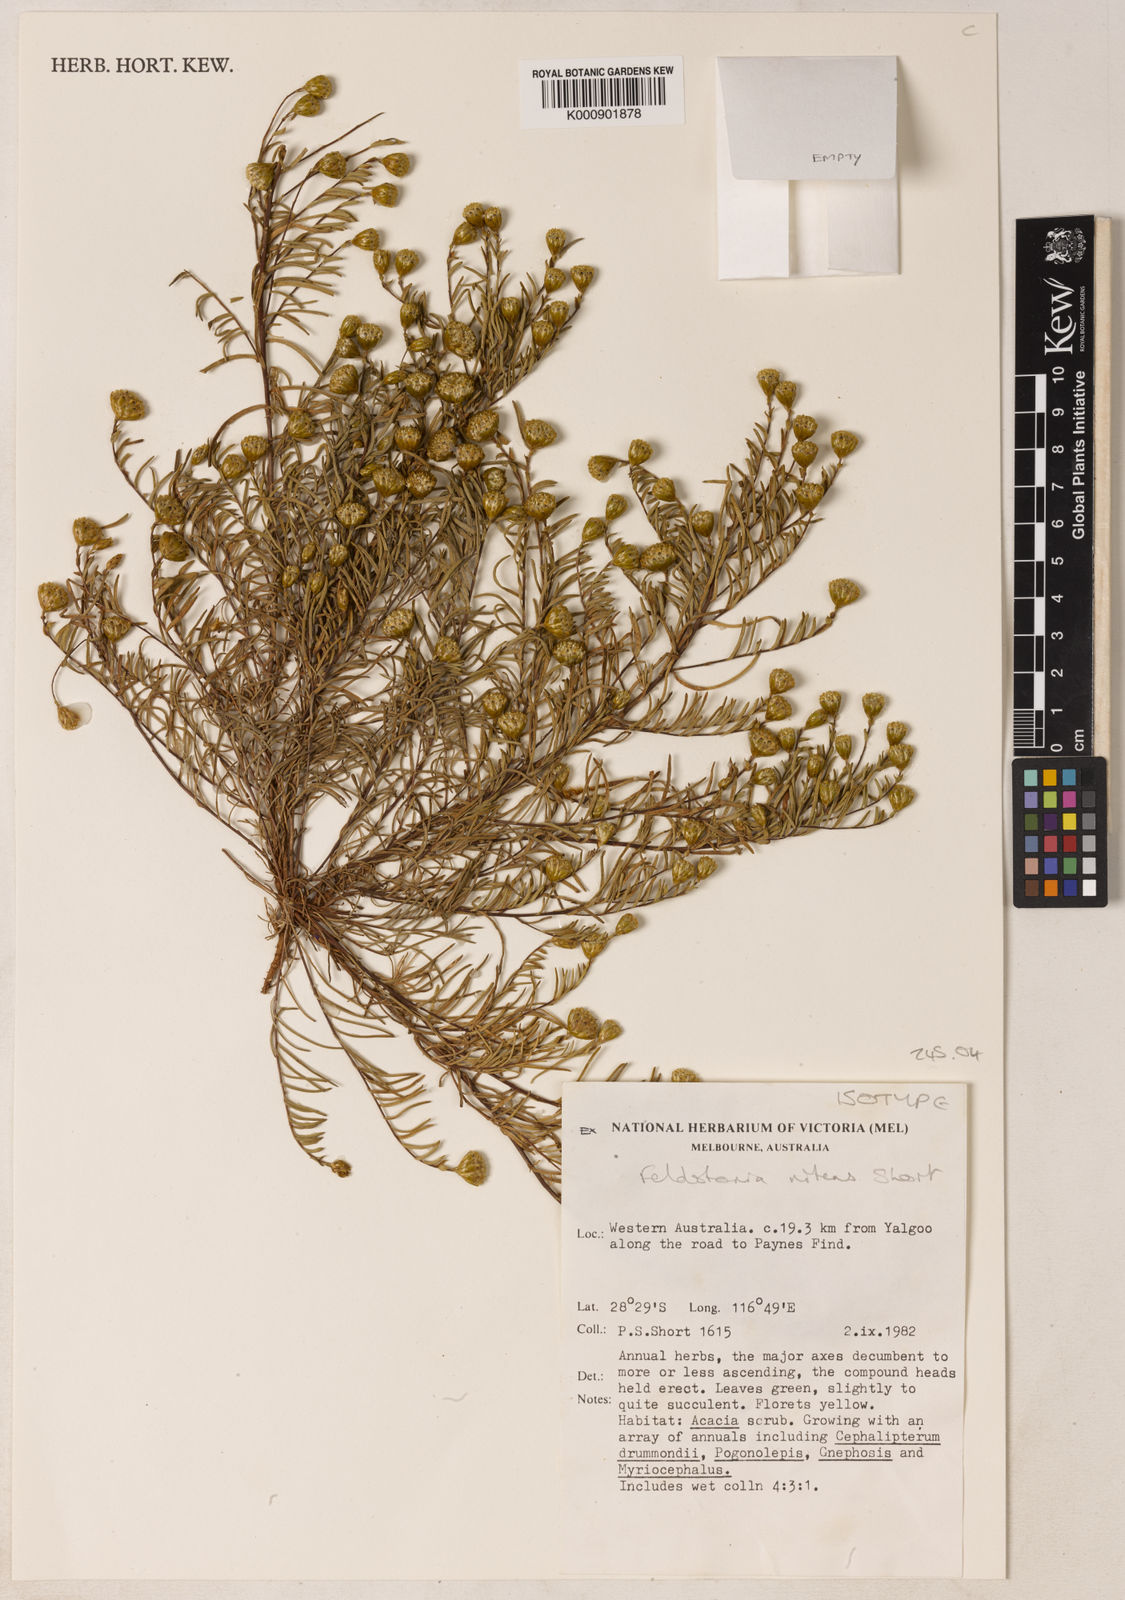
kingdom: Plantae
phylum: Tracheophyta
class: Magnoliopsida
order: Asterales
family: Asteraceae
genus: Feldstonia
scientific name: Feldstonia nitens
